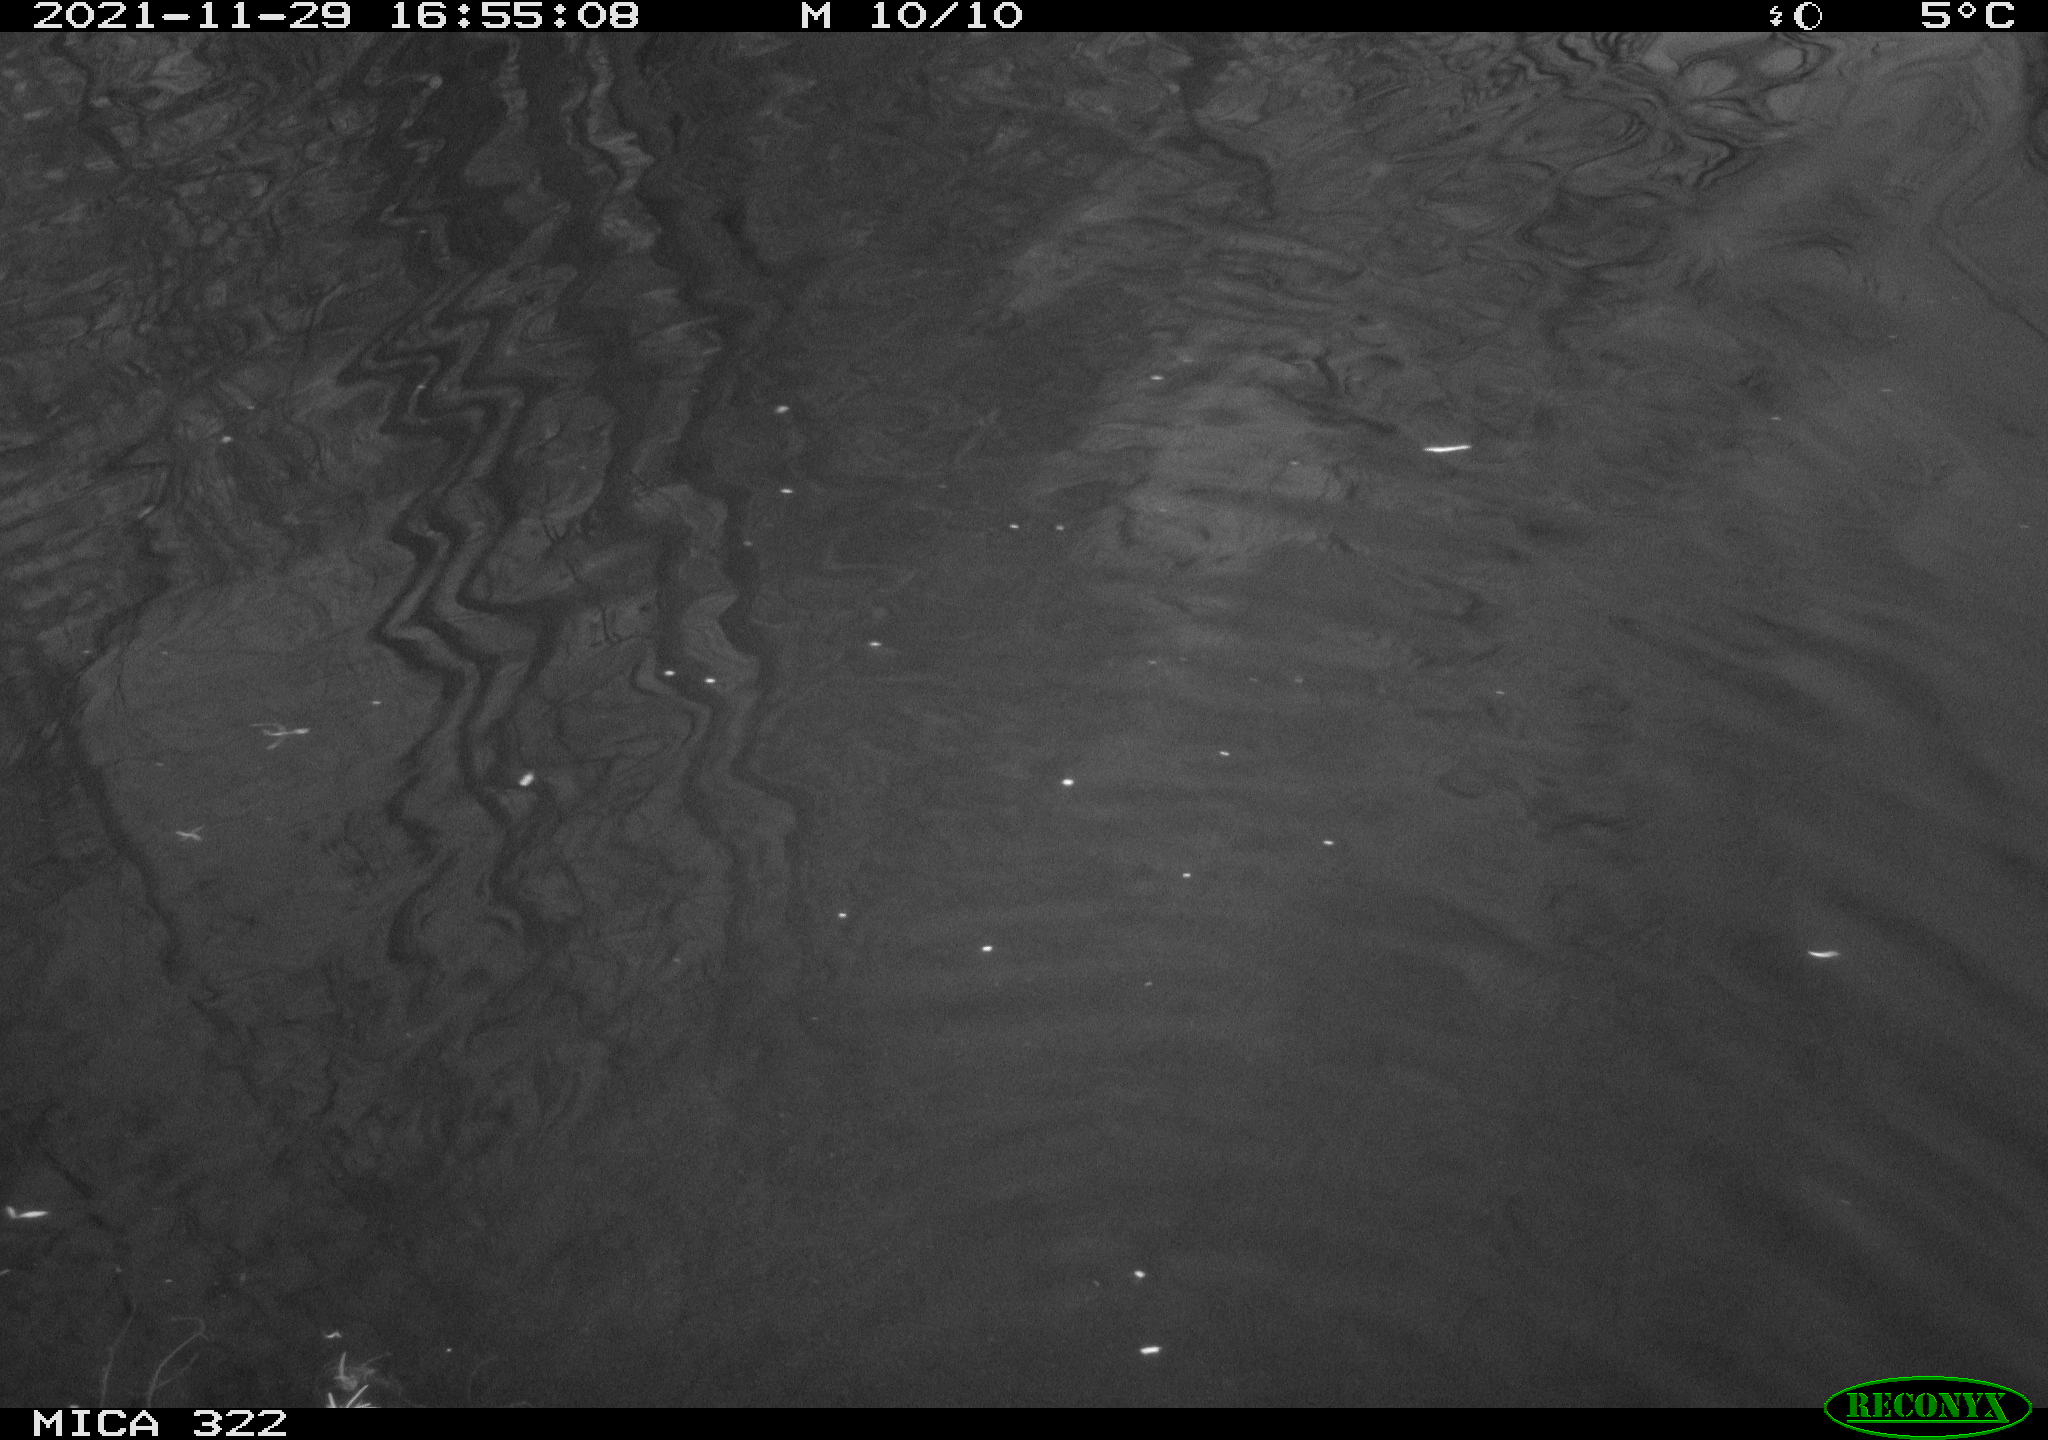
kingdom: Animalia
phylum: Chordata
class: Aves
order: Gruiformes
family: Rallidae
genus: Gallinula
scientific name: Gallinula chloropus
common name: Common moorhen
